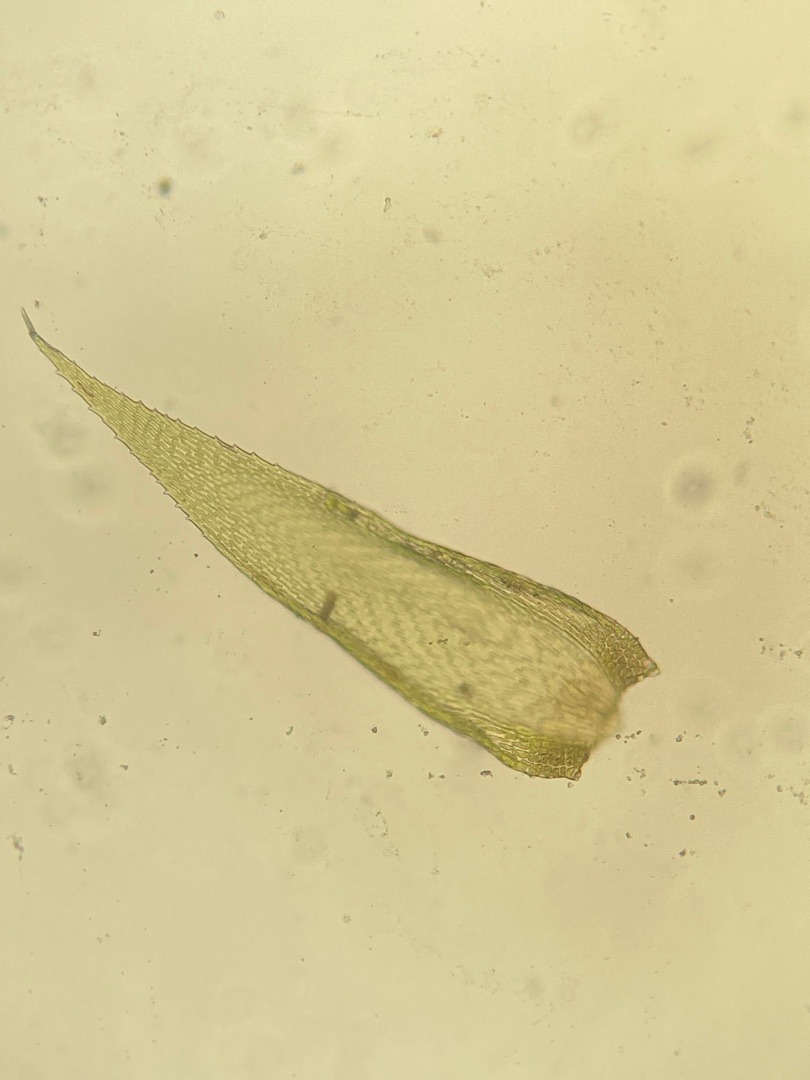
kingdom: Plantae
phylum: Bryophyta
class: Bryopsida
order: Hypnales
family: Hypnaceae
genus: Hypnum
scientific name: Hypnum andoi
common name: Vortet cypresmos
